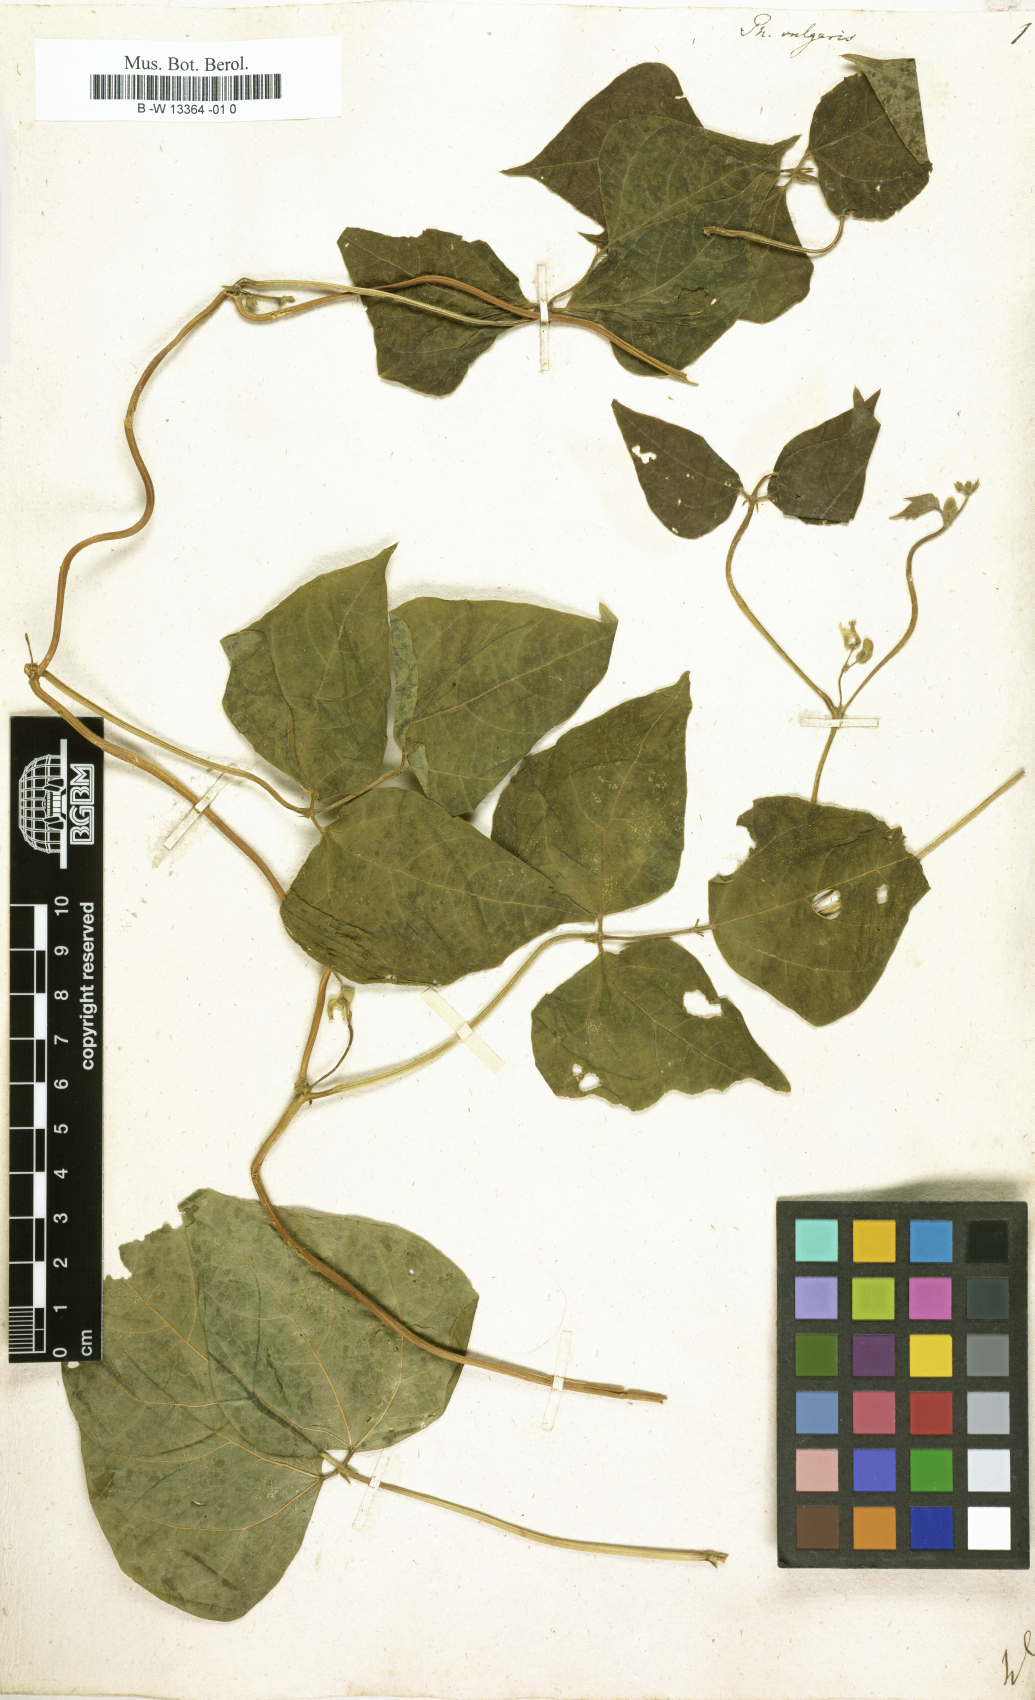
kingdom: Plantae
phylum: Tracheophyta
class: Magnoliopsida
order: Fabales
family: Fabaceae
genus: Phaseolus
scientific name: Phaseolus vulgaris
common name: Bean
